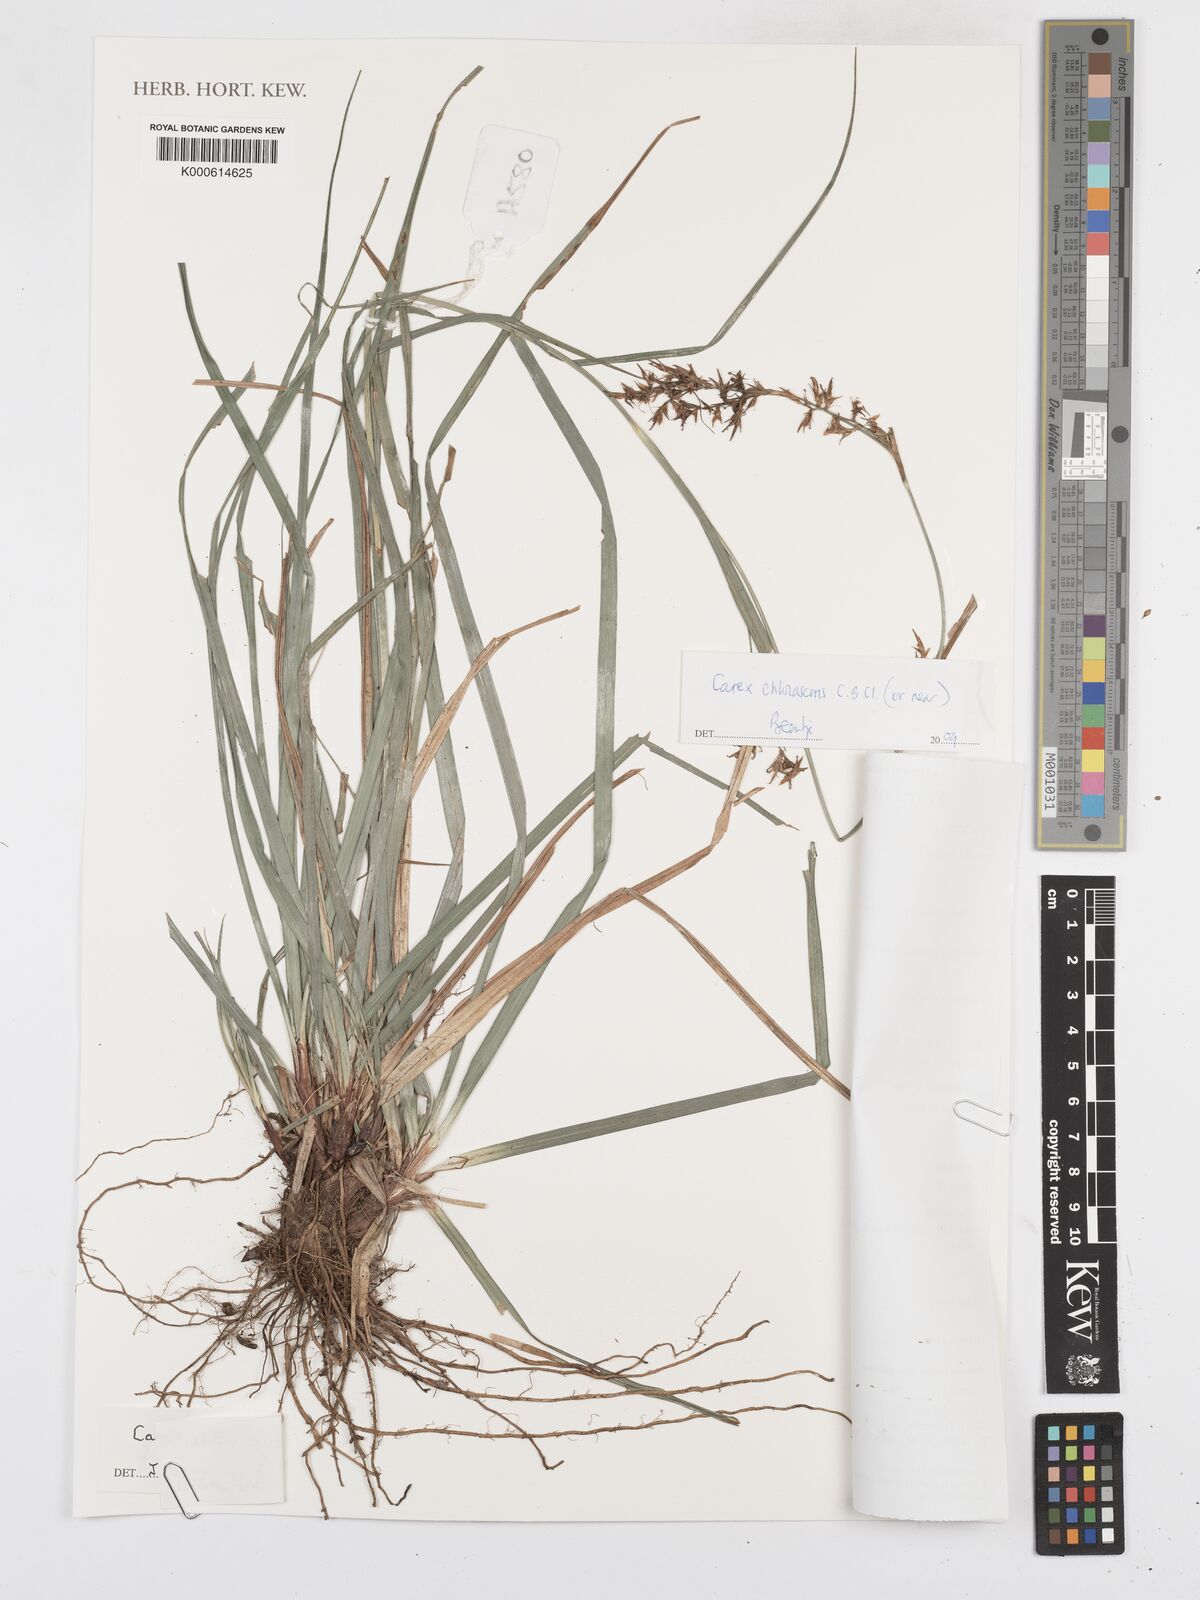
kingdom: Plantae
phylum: Tracheophyta
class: Liliopsida
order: Poales
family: Cyperaceae
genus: Carex
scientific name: Carex
